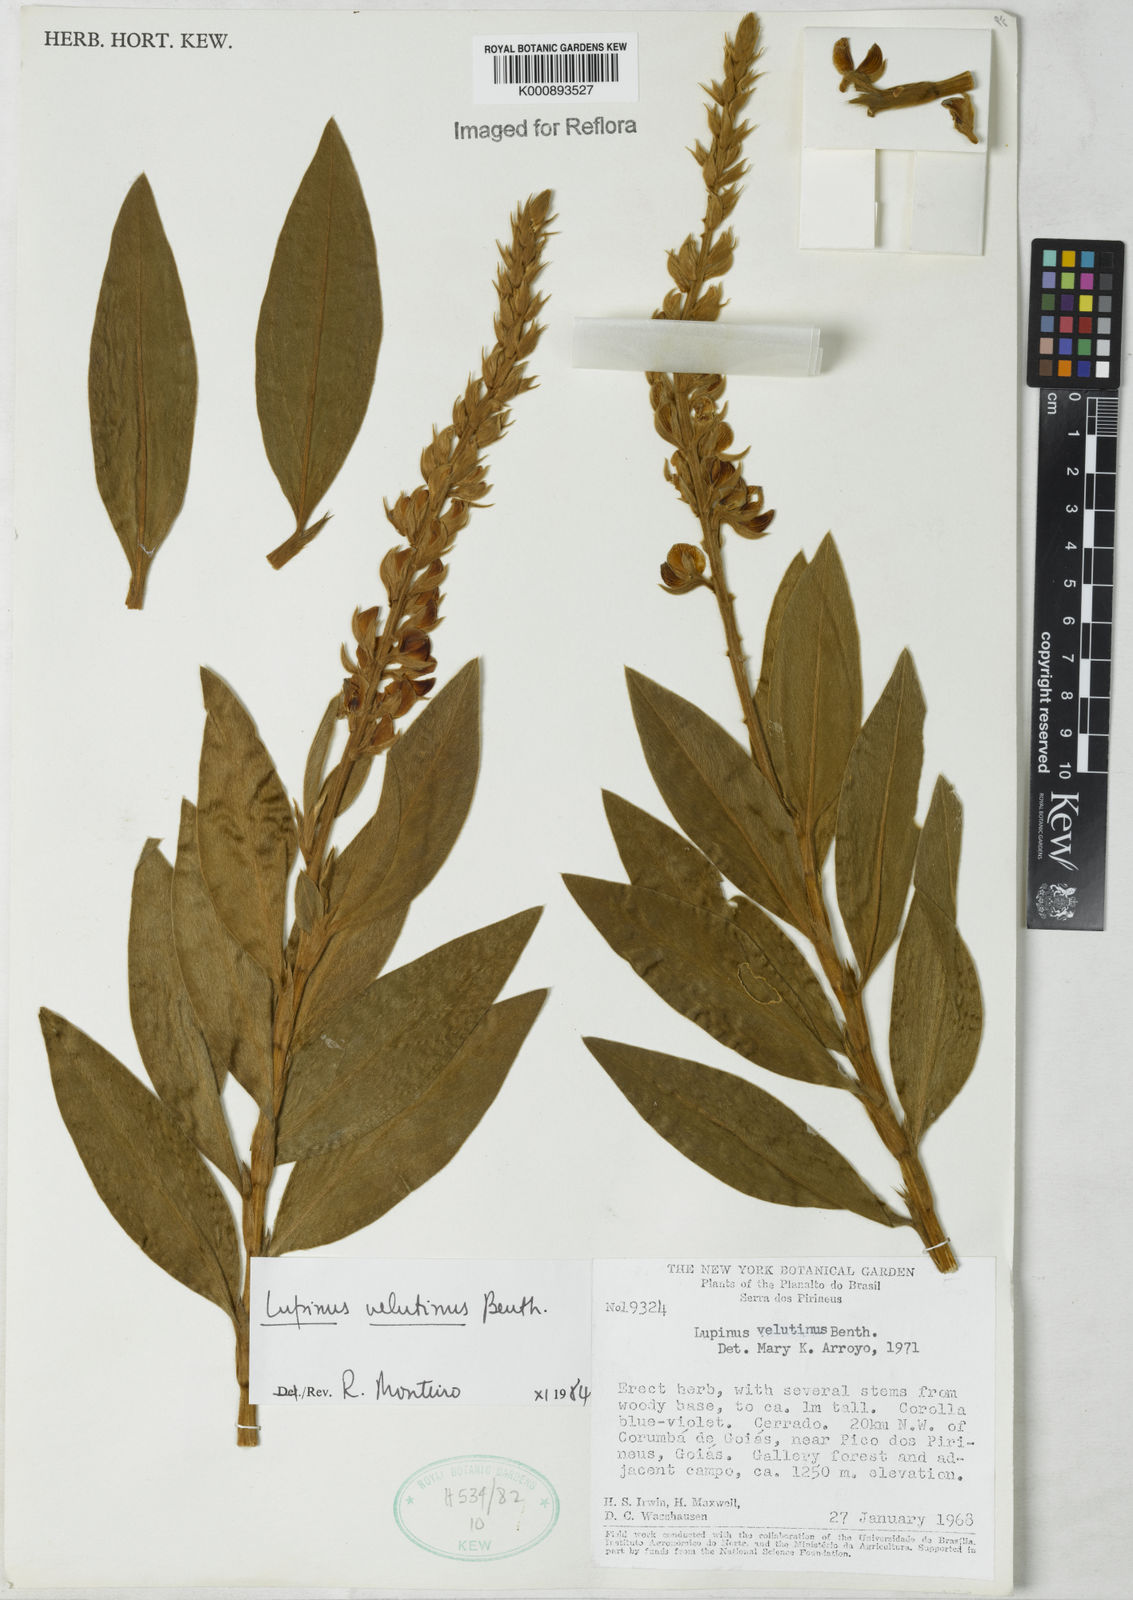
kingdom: Plantae
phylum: Tracheophyta
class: Magnoliopsida
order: Fabales
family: Fabaceae
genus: Lupinus
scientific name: Lupinus velutinus
